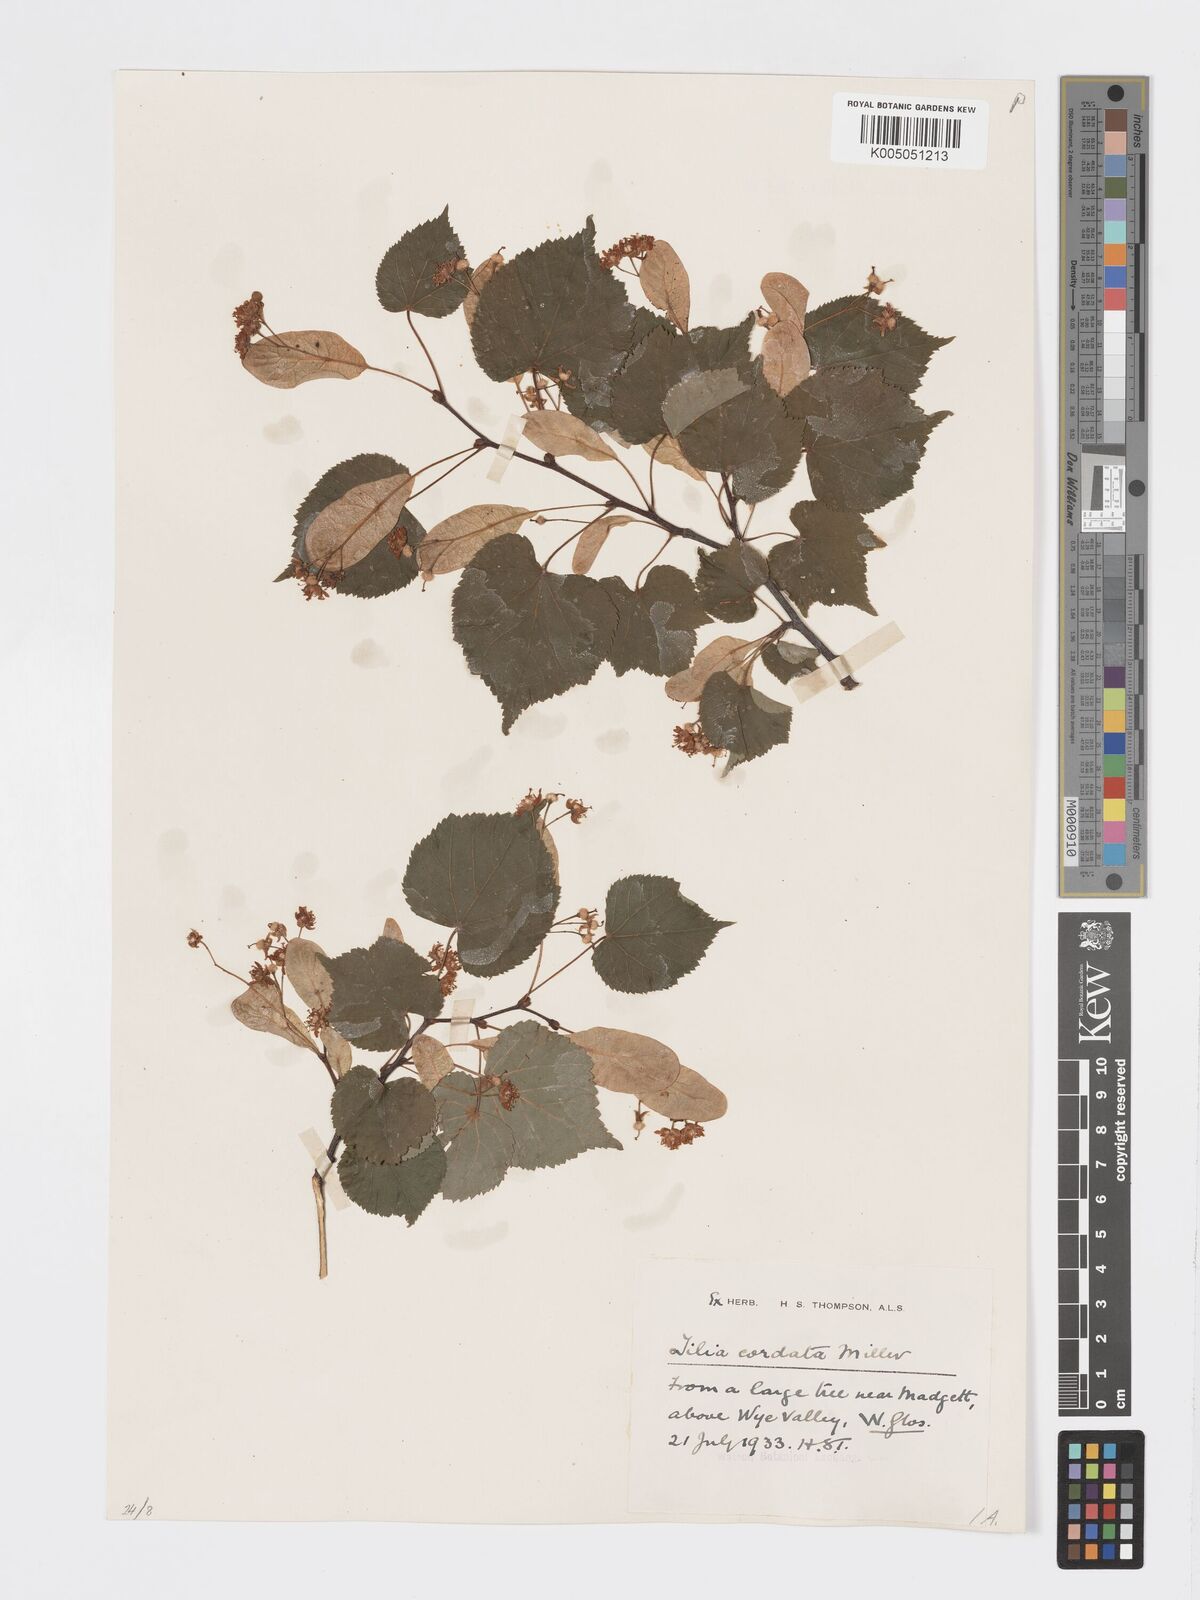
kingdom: Plantae
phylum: Tracheophyta
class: Magnoliopsida
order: Malvales
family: Malvaceae
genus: Tilia
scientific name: Tilia cordata
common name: Small-leaved lime
